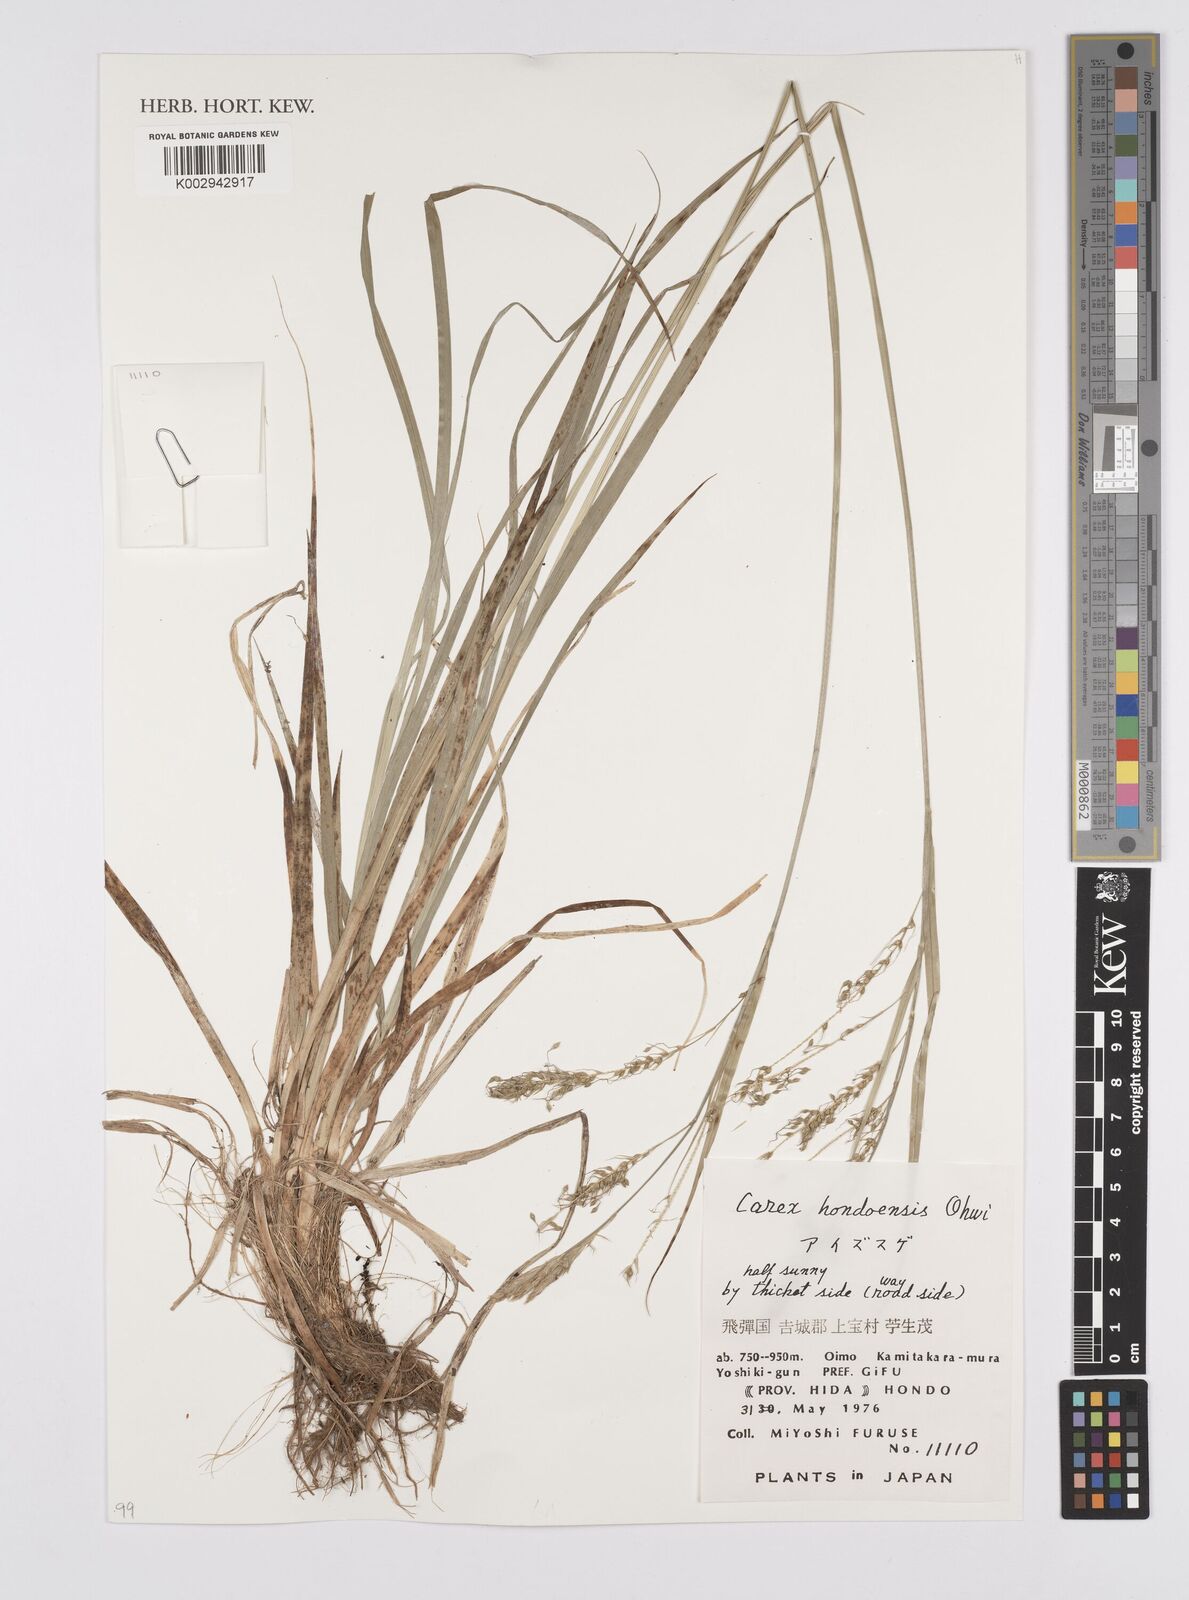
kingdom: Plantae
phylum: Tracheophyta
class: Liliopsida
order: Poales
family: Cyperaceae
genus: Carex
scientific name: Carex hondoensis
